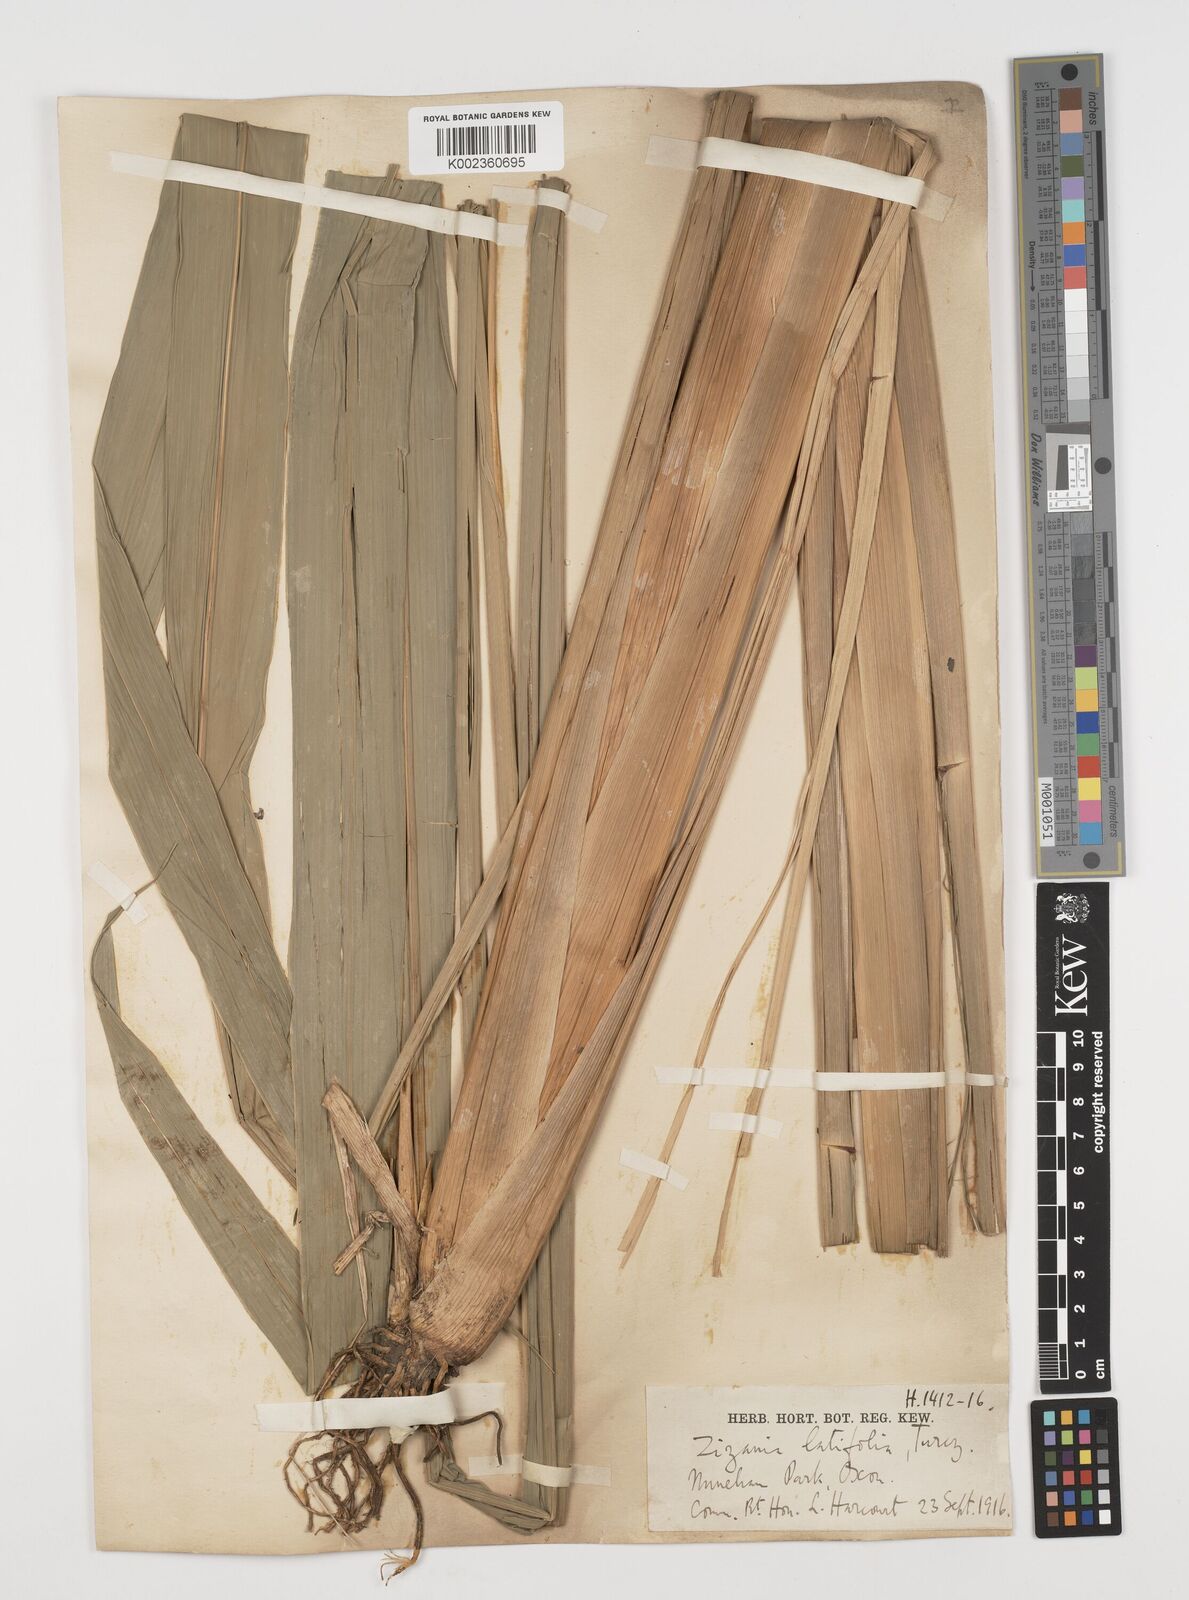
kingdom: Plantae
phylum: Tracheophyta
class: Liliopsida
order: Poales
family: Poaceae
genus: Zizania
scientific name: Zizania latifolia
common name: Manchurian wildrice
